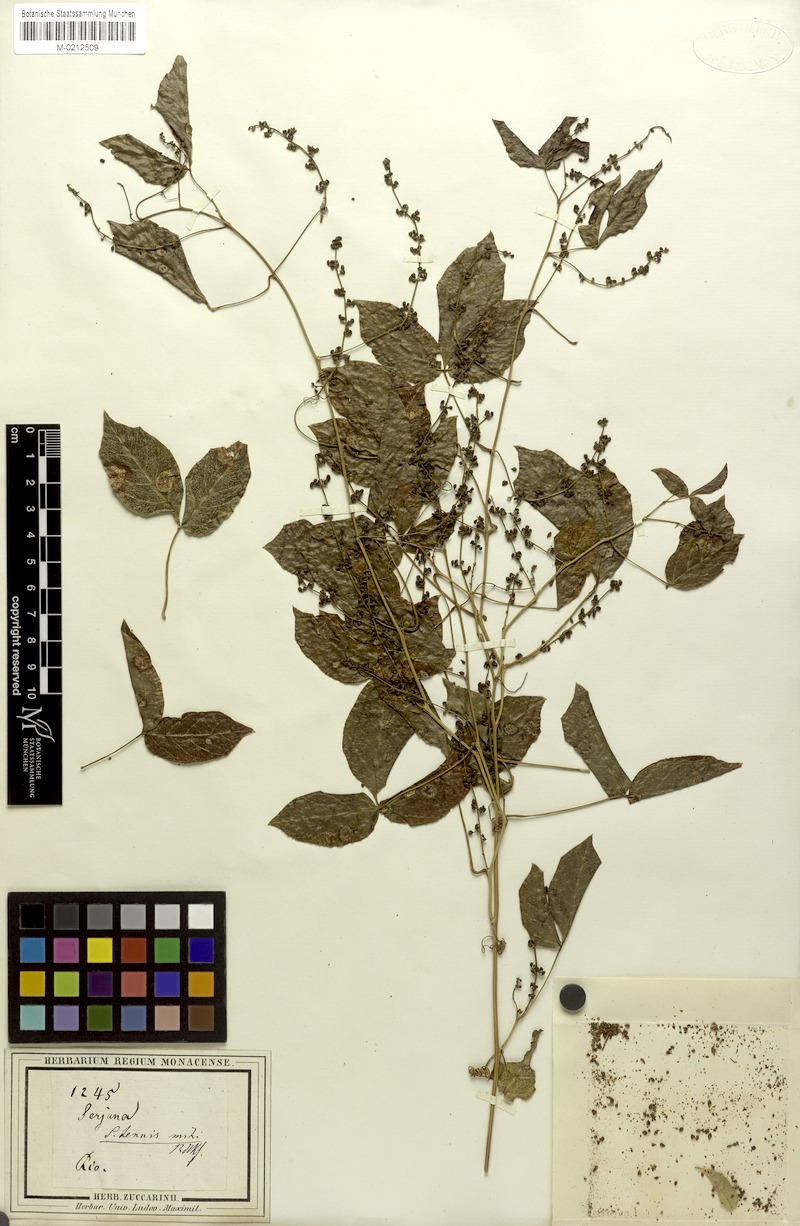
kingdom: Plantae
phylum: Tracheophyta
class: Magnoliopsida
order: Sapindales
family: Sapindaceae
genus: Serjania
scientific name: Serjania tenuis
